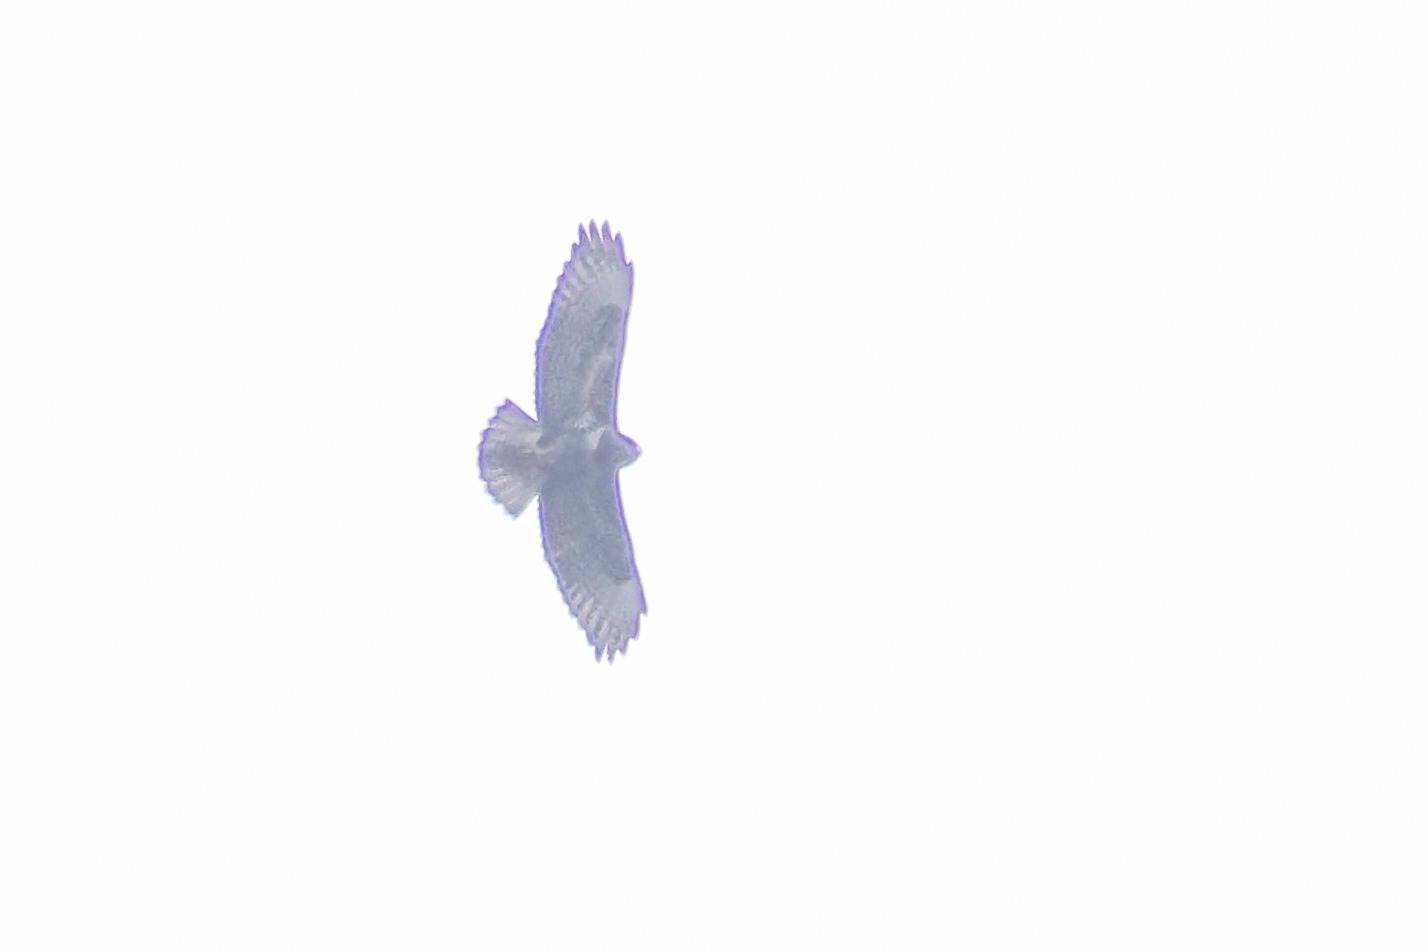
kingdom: Animalia
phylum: Chordata
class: Aves
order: Accipitriformes
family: Accipitridae
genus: Buteo
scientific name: Buteo buteo
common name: Musvåge
